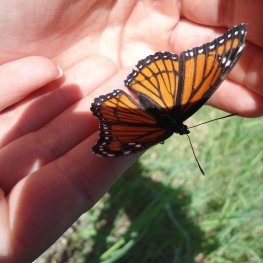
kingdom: Animalia
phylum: Arthropoda
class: Insecta
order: Lepidoptera
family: Nymphalidae
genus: Limenitis
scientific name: Limenitis archippus
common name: Viceroy
